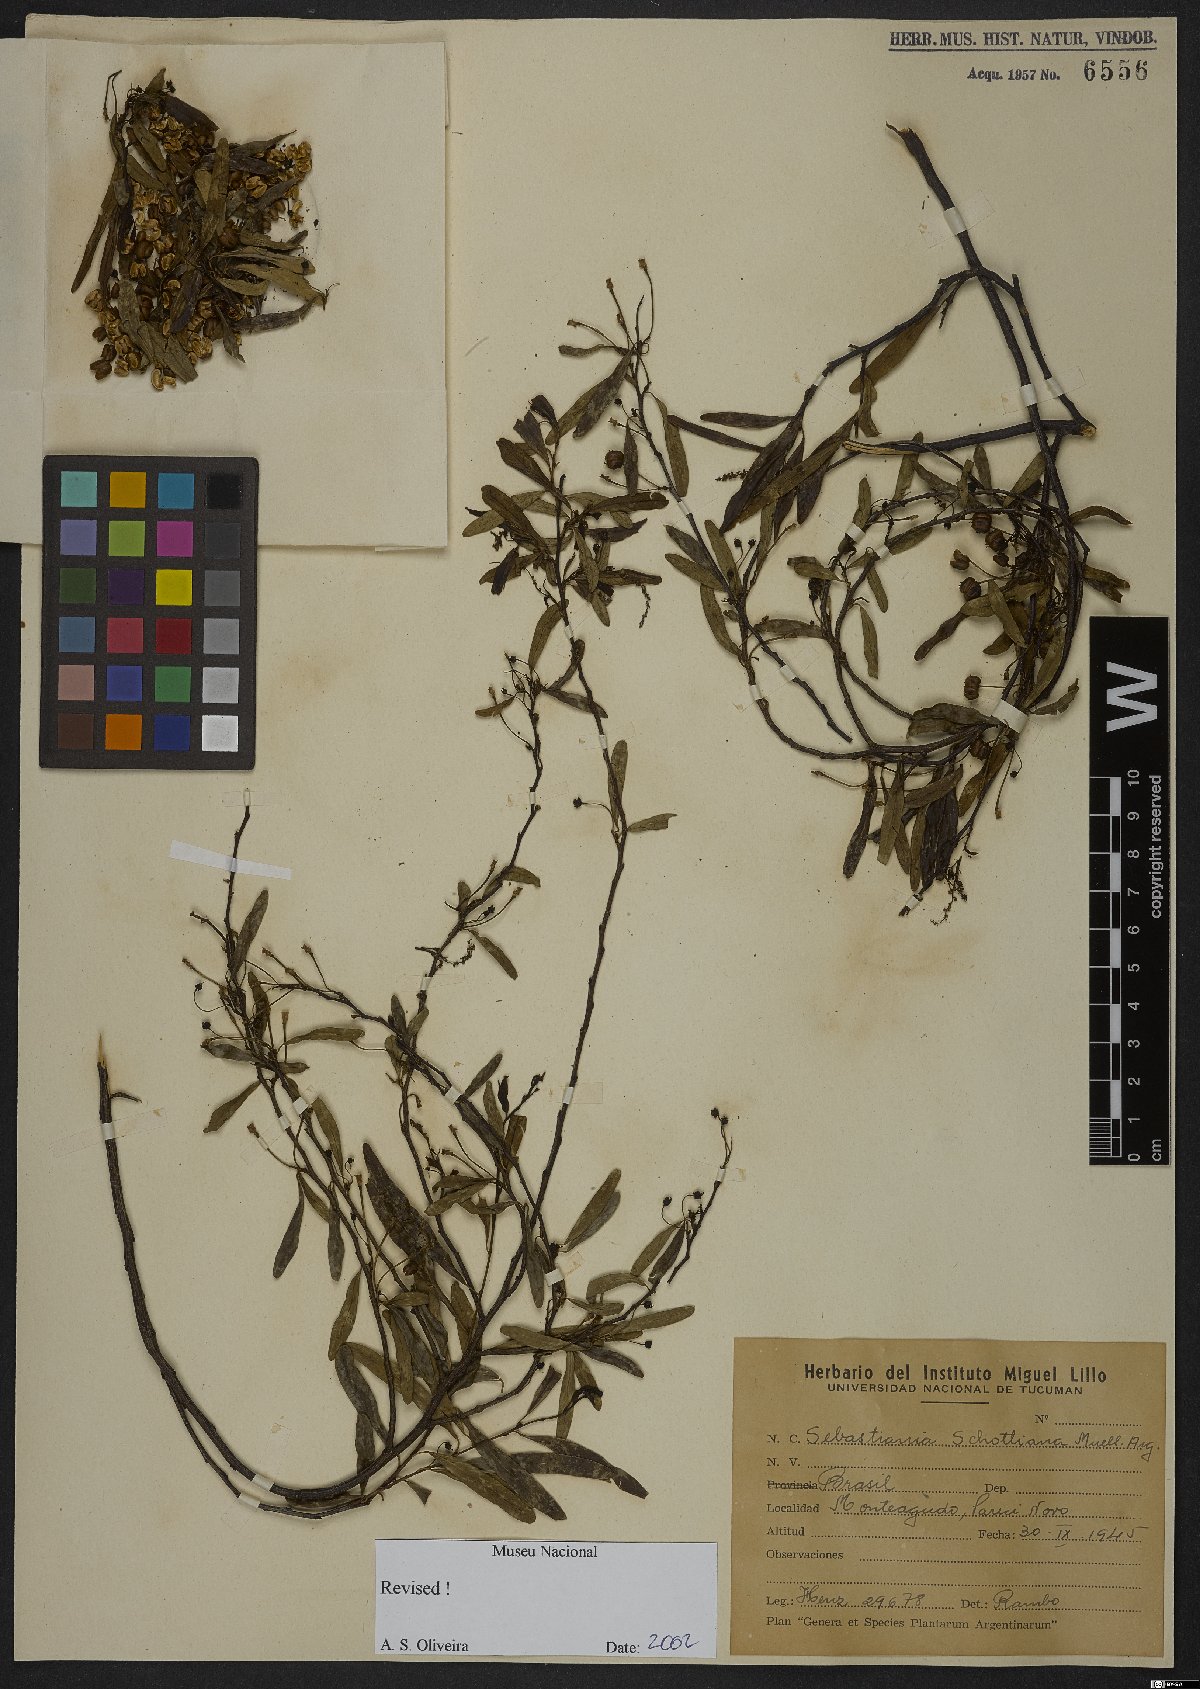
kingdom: Plantae
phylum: Tracheophyta
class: Magnoliopsida
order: Malpighiales
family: Euphorbiaceae
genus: Sebastiania
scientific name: Sebastiania schottiana
